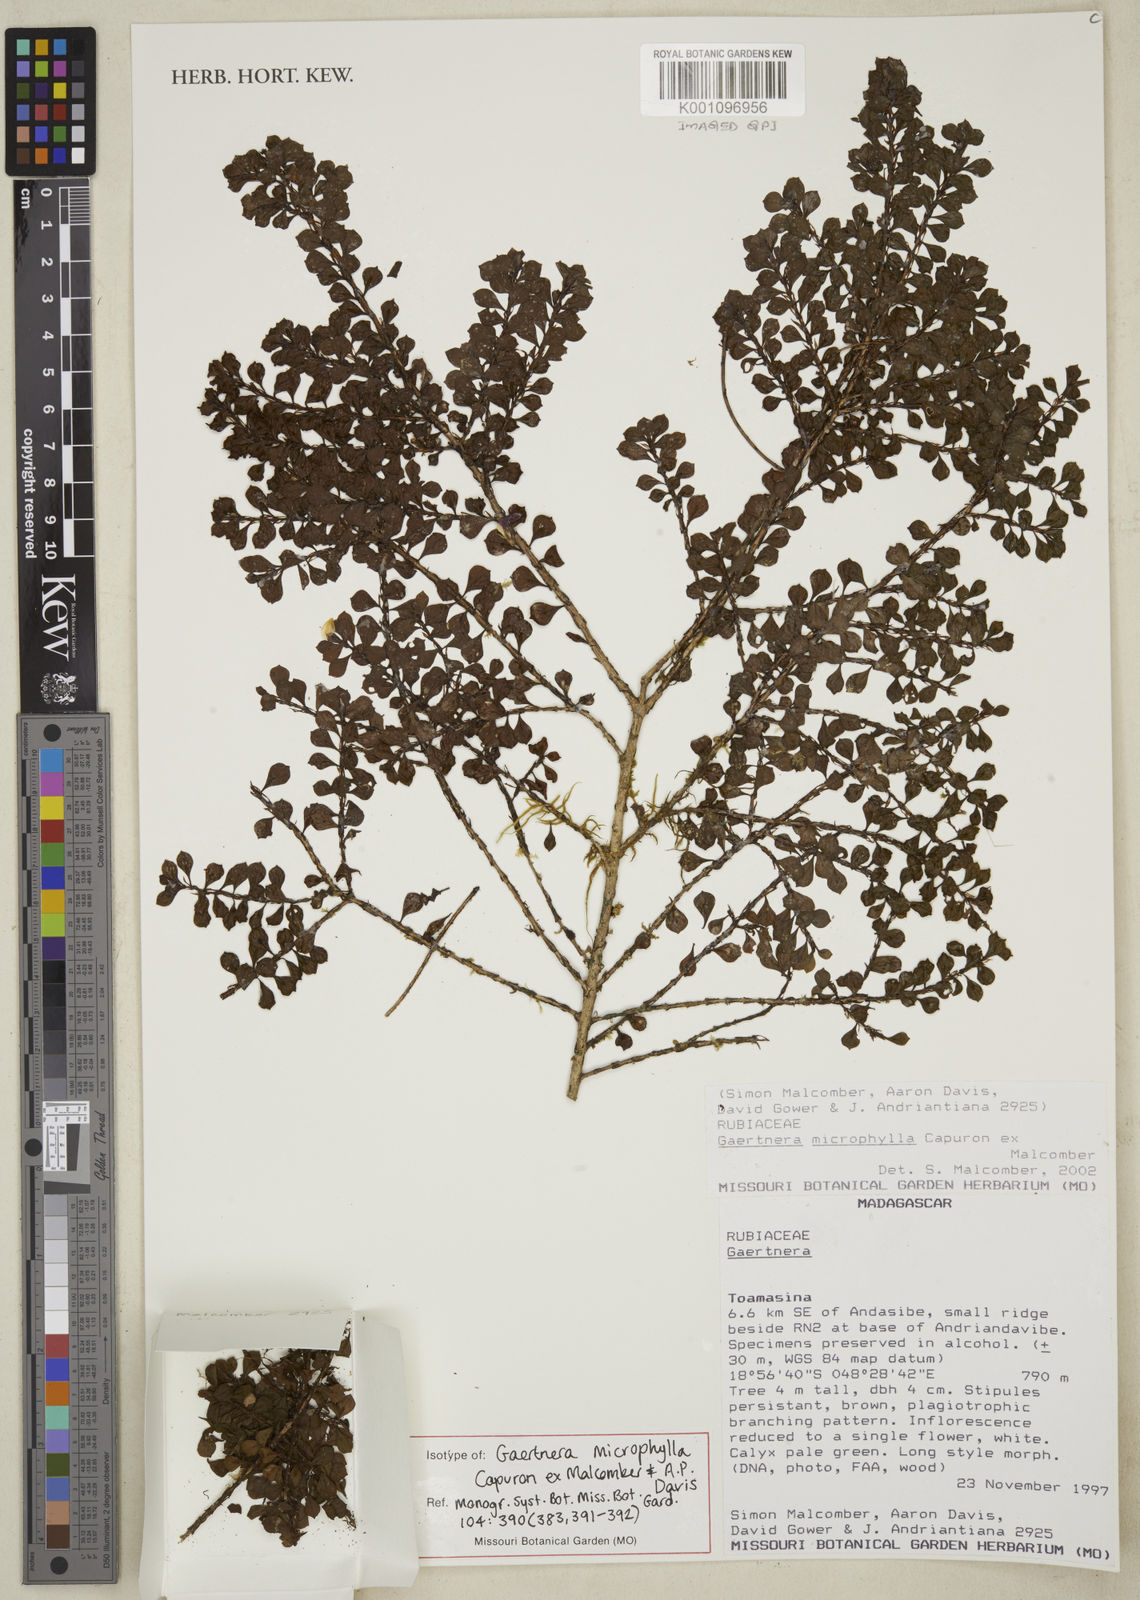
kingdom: Plantae
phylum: Tracheophyta
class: Magnoliopsida
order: Gentianales
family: Rubiaceae
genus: Gaertnera
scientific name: Gaertnera microphylla
